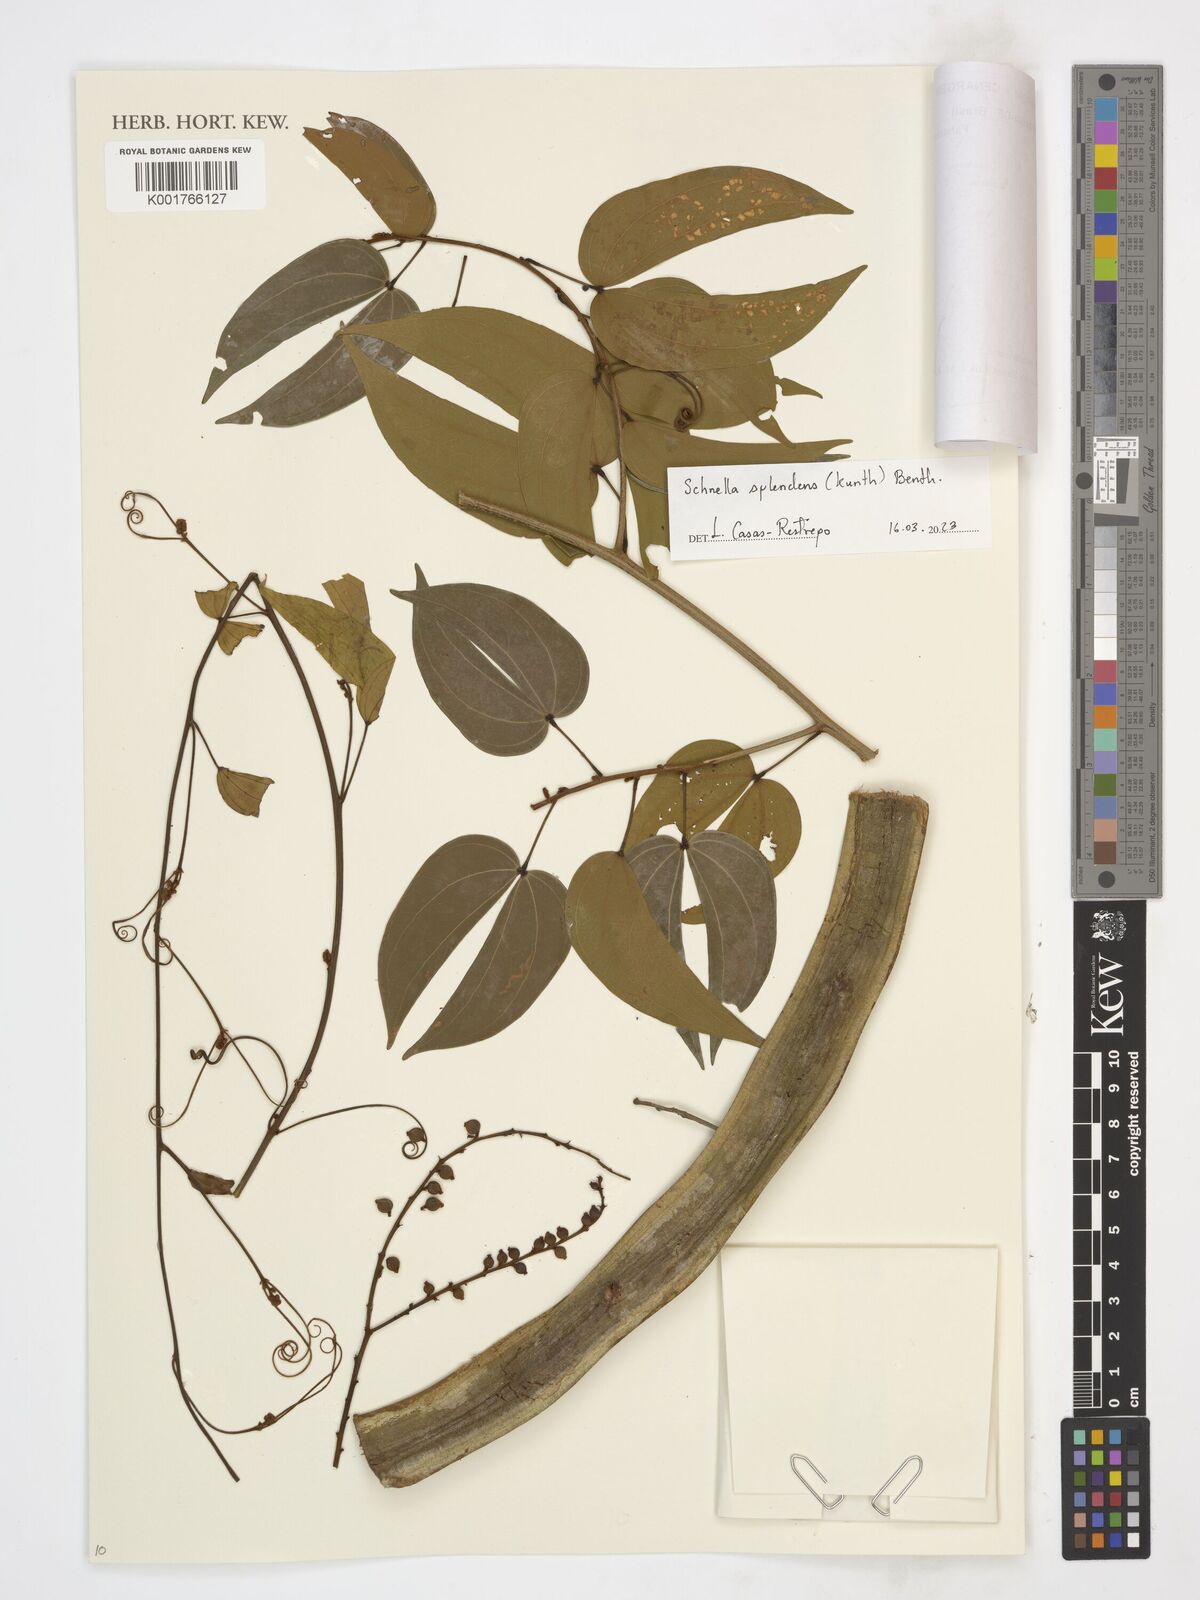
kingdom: Plantae
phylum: Tracheophyta
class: Magnoliopsida
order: Fabales
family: Fabaceae
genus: Schnella
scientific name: Schnella splendens
